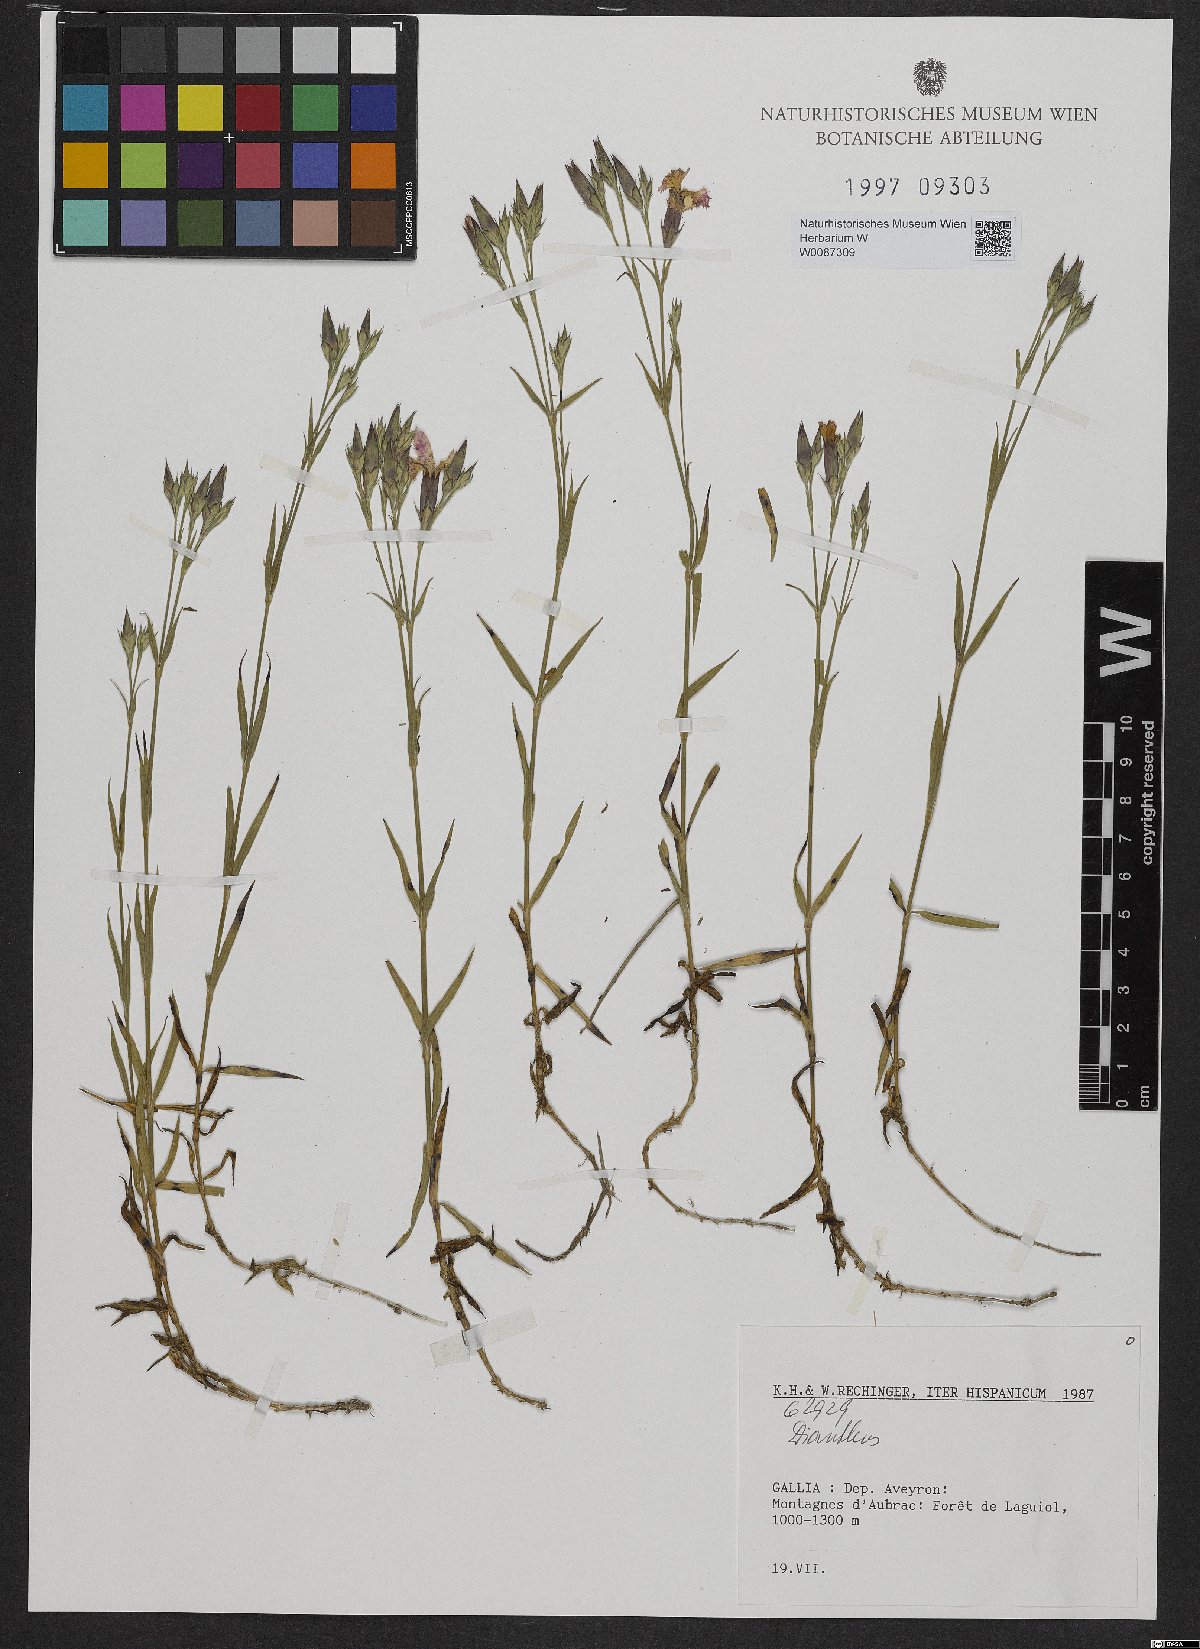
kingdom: Plantae
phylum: Tracheophyta
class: Magnoliopsida
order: Caryophyllales
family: Caryophyllaceae
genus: Dianthus
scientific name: Dianthus
